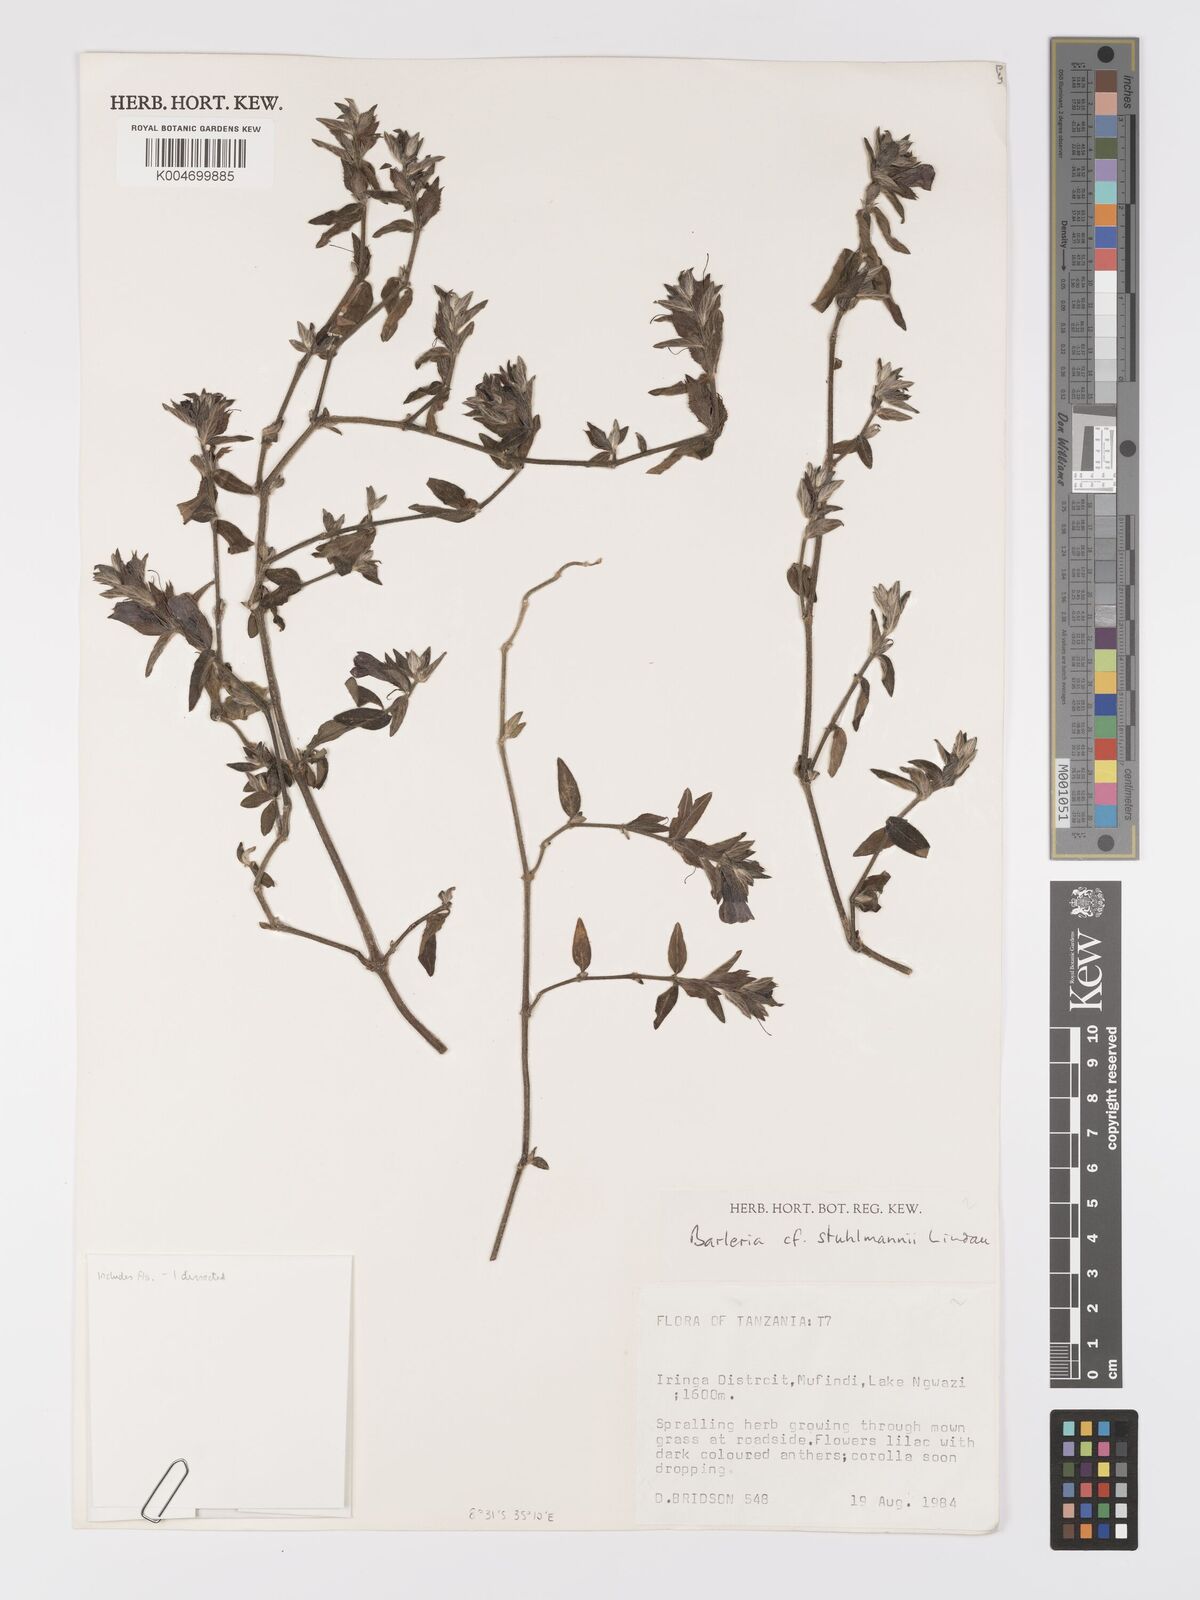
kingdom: Plantae
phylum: Tracheophyta
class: Magnoliopsida
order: Lamiales
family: Acanthaceae
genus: Barleria
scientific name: Barleria ventricosa
